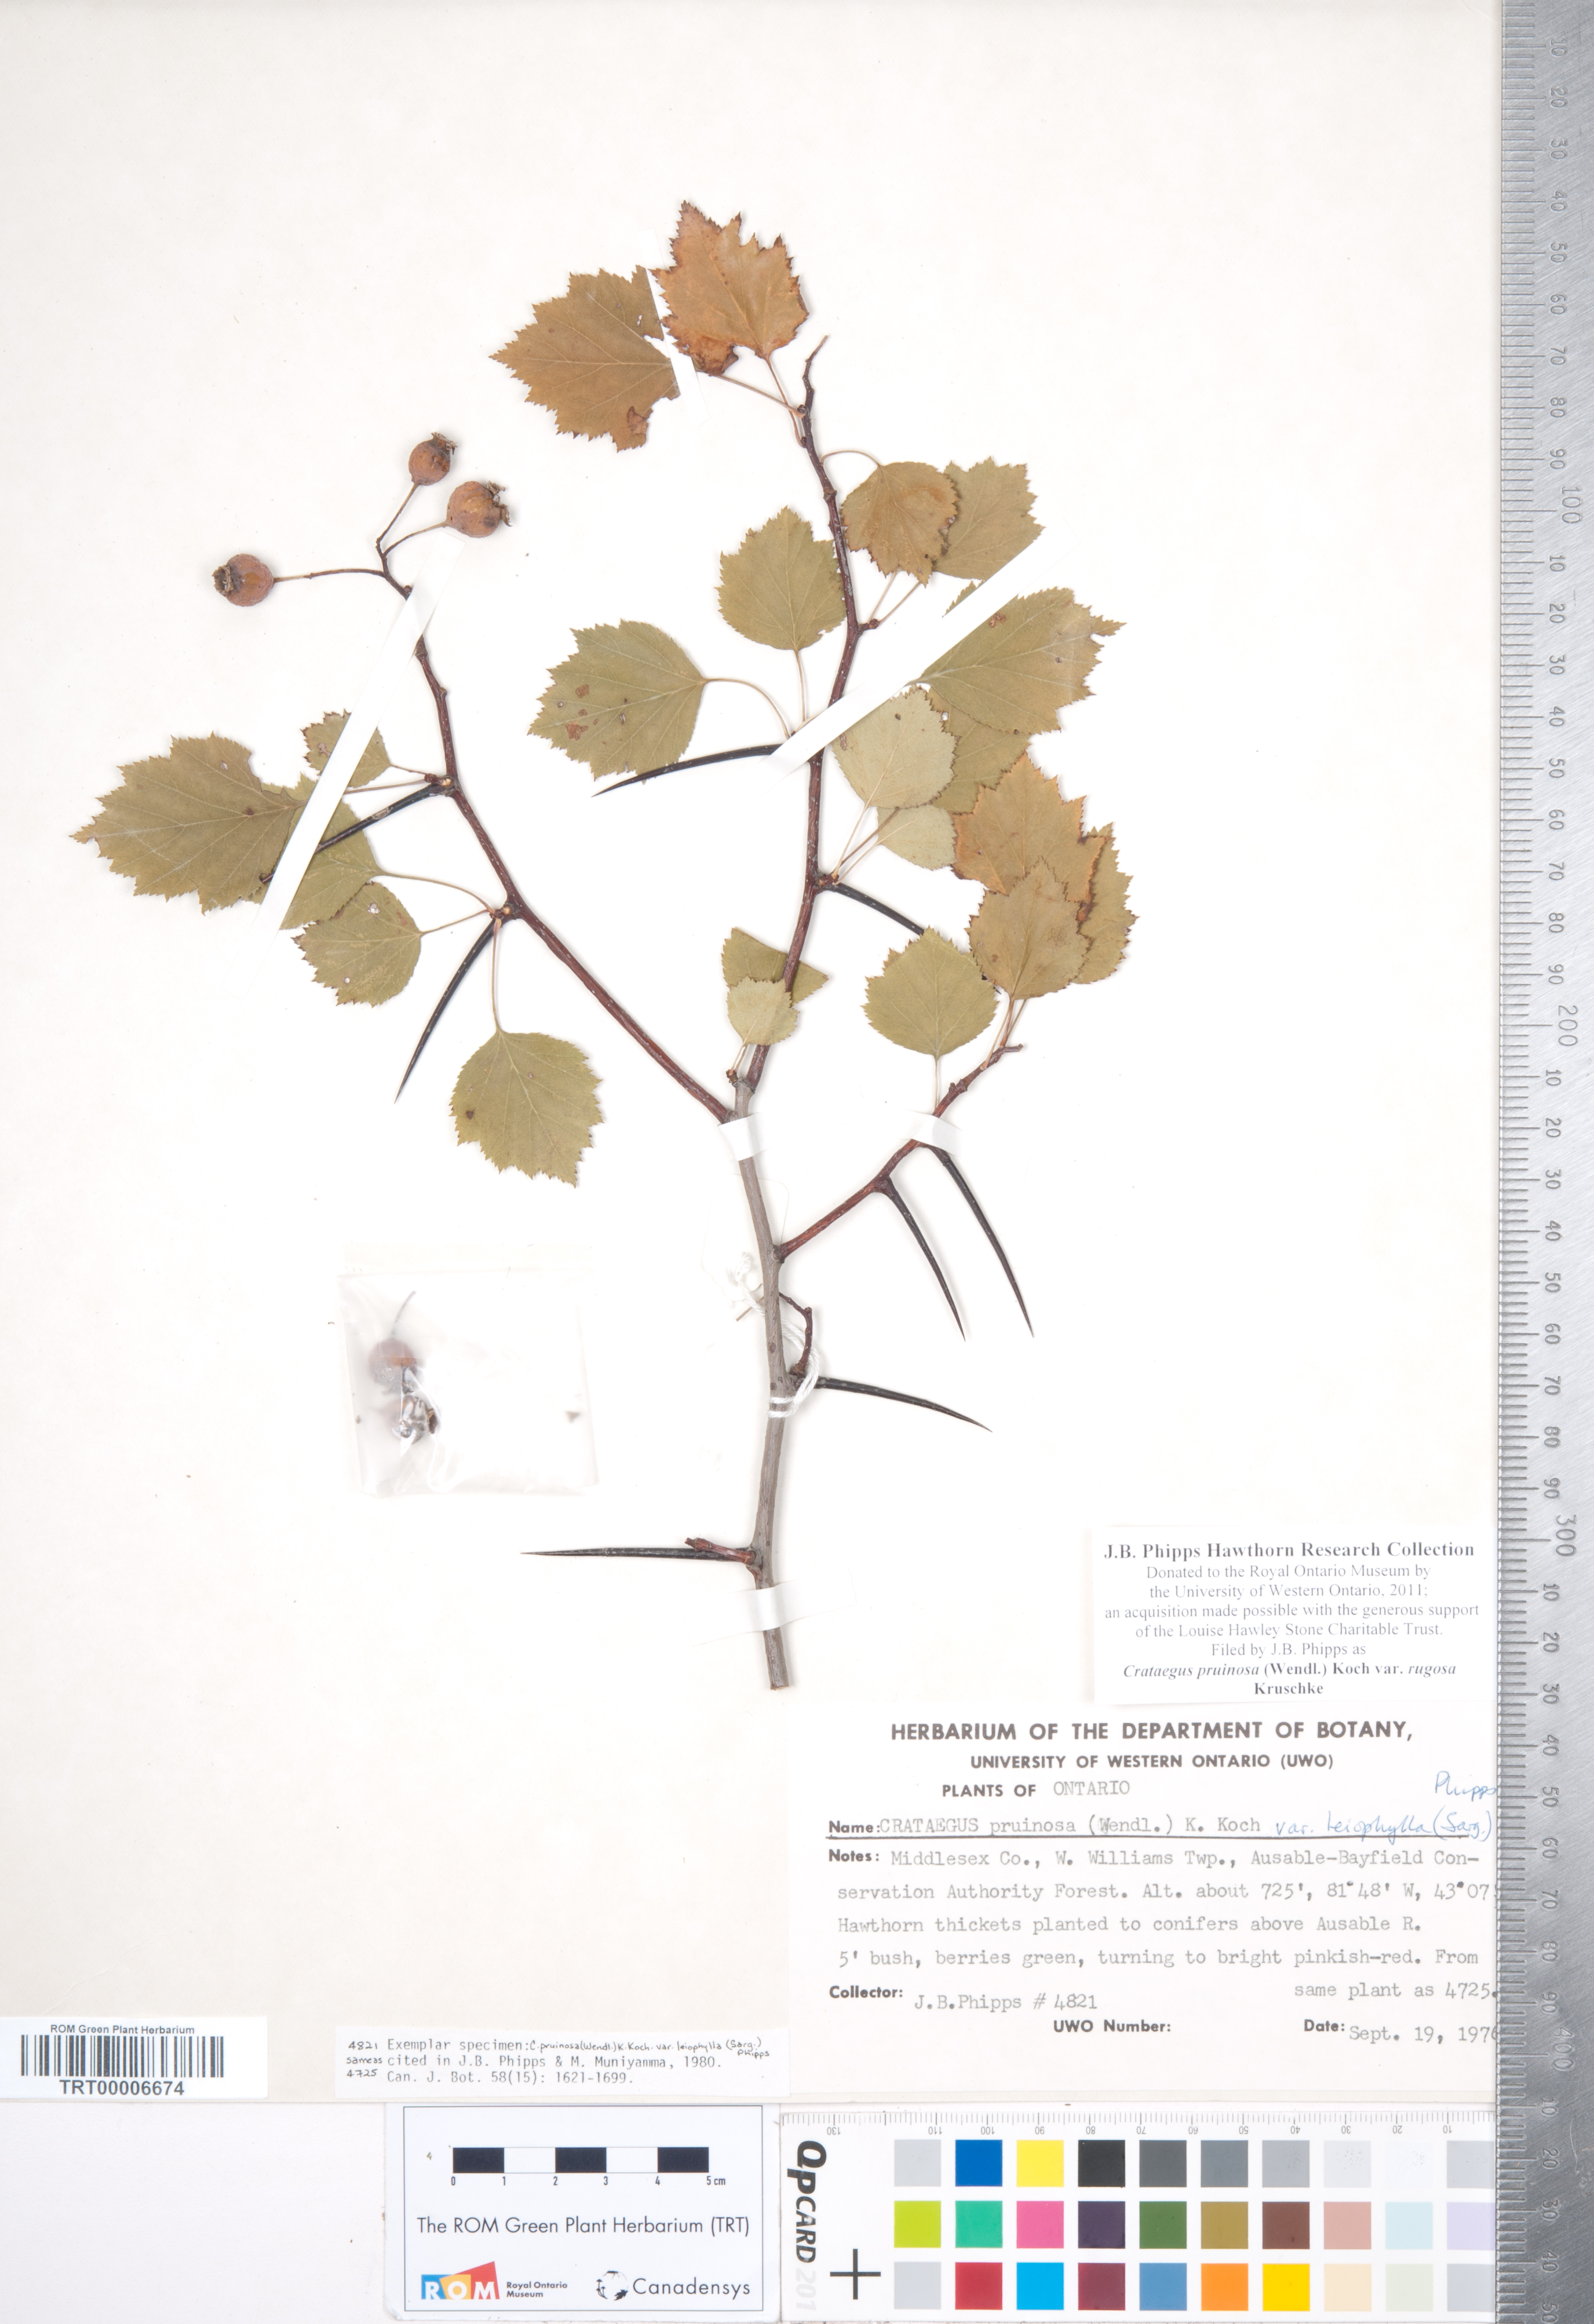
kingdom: Plantae
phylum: Tracheophyta
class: Magnoliopsida
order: Rosales
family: Rosaceae
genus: Crataegus
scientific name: Crataegus pruinosa
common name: Waxy-fruit hawthorn
